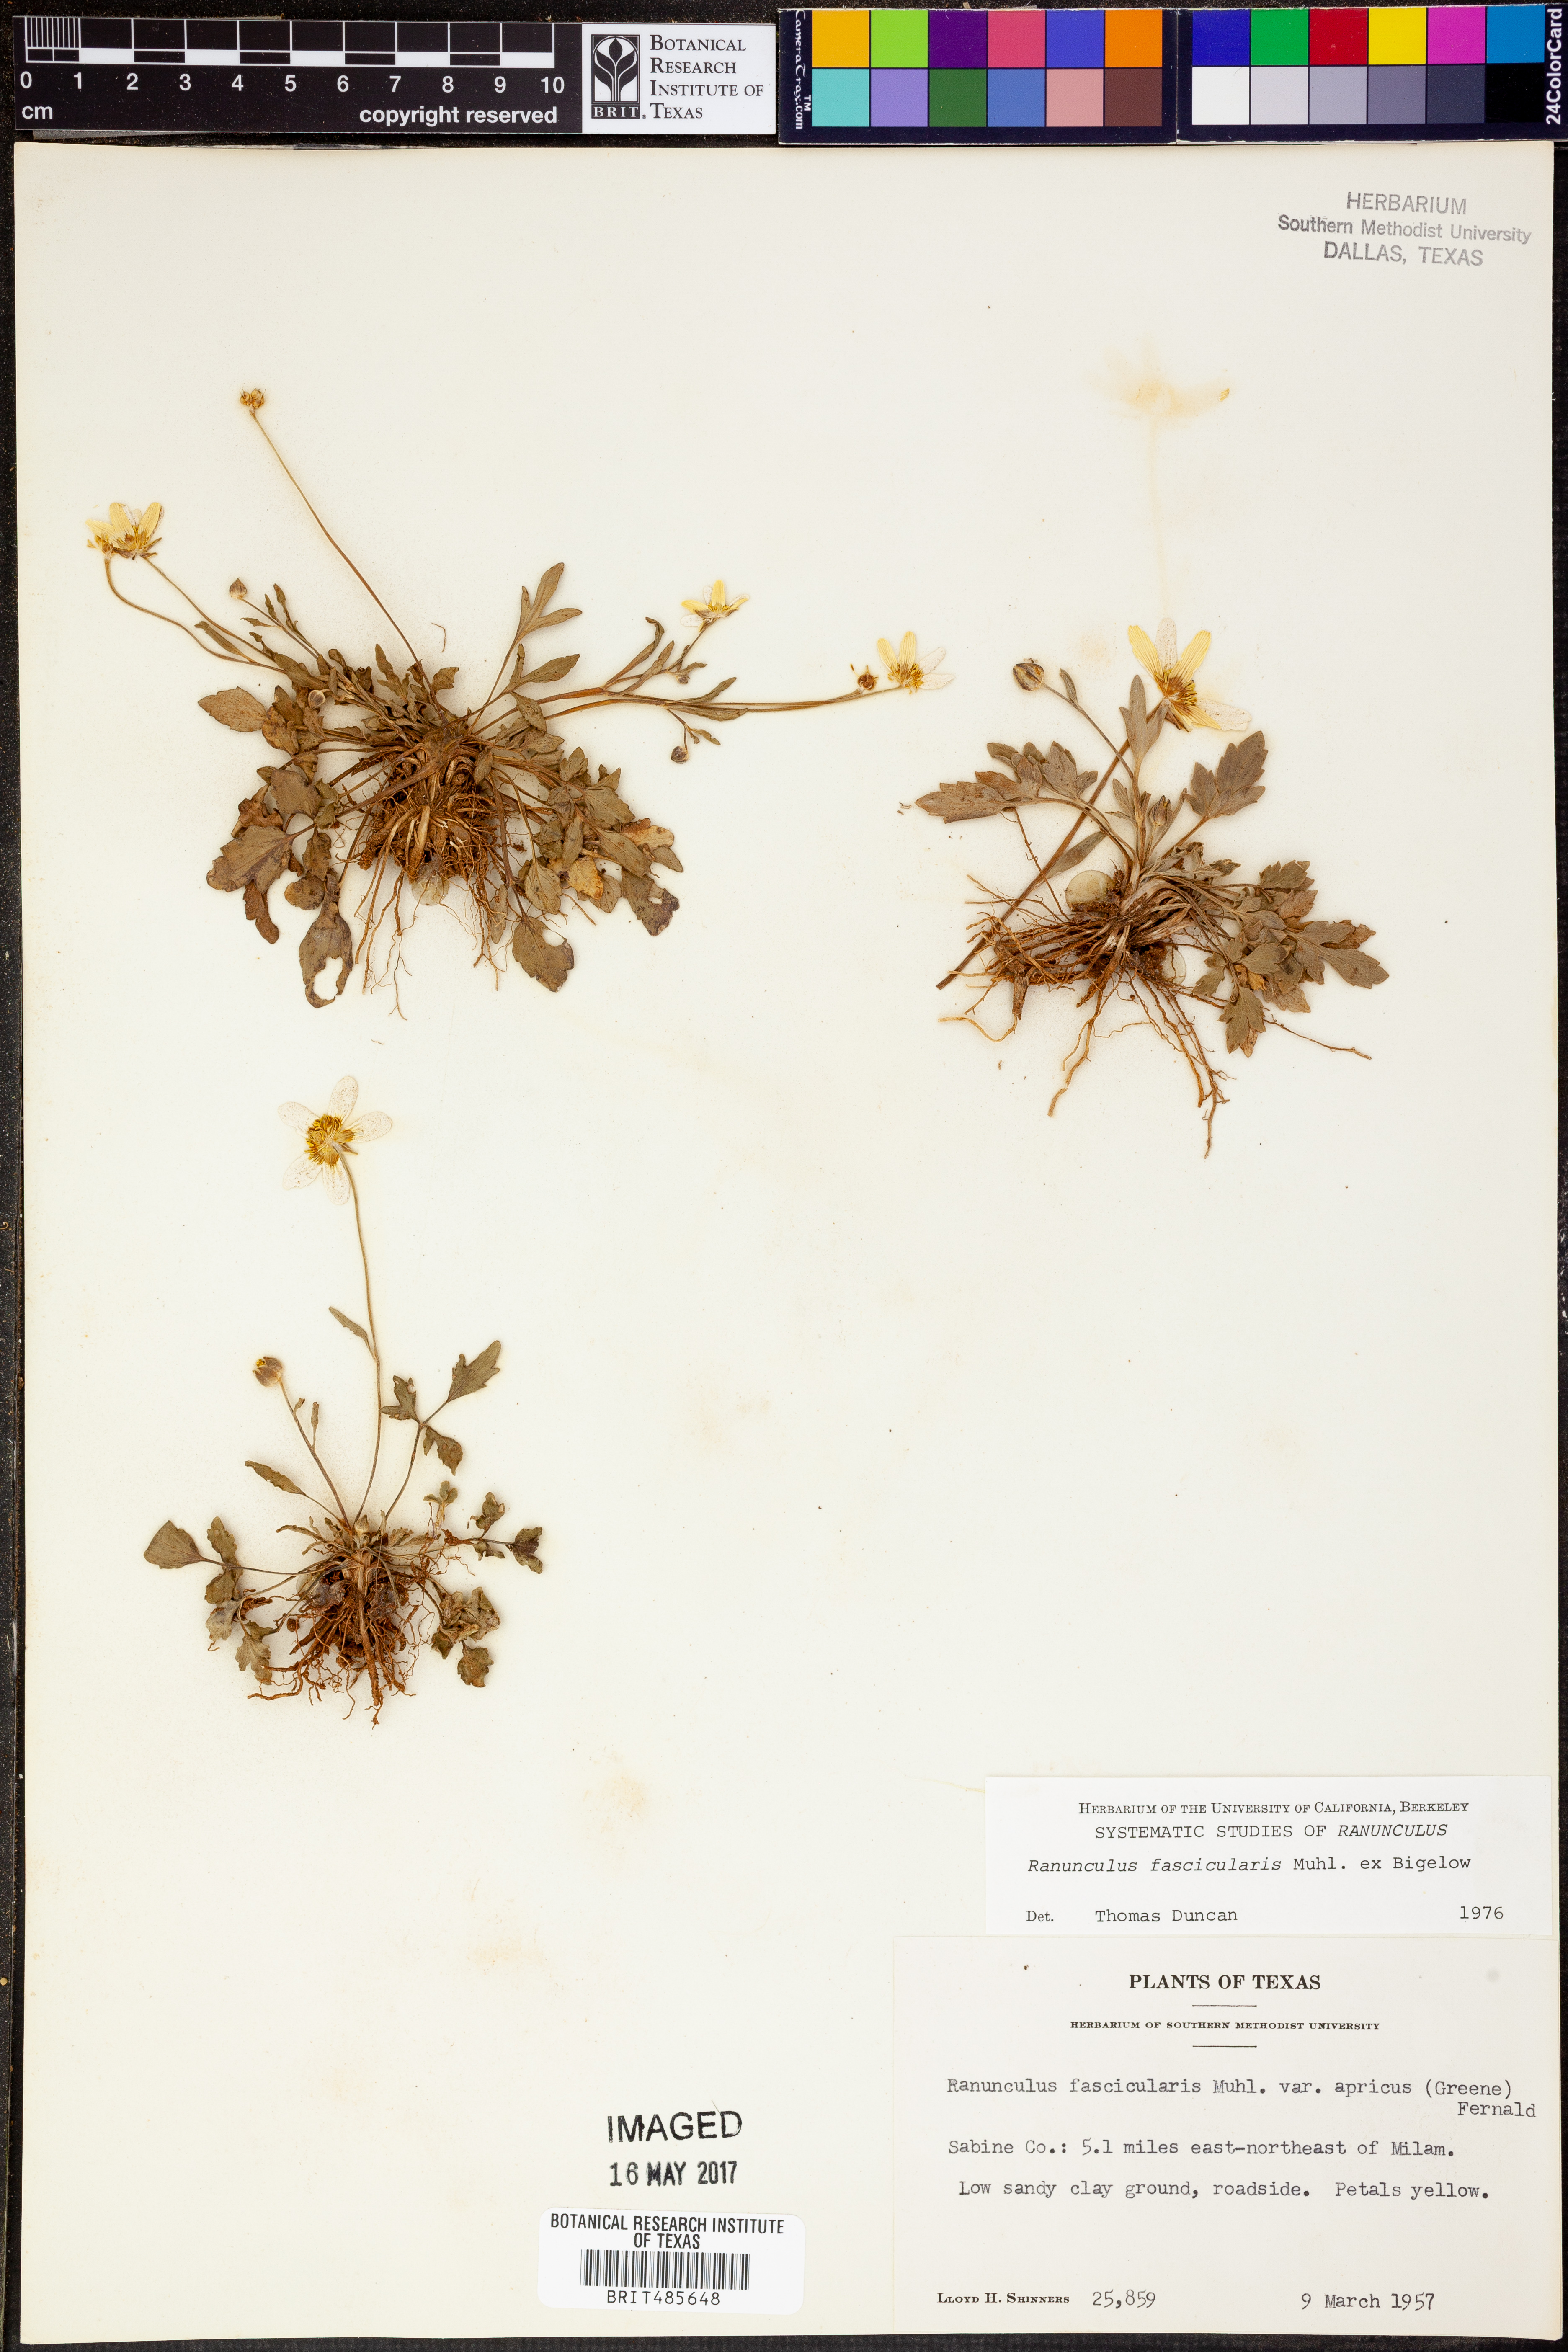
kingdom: Plantae
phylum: Tracheophyta
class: Magnoliopsida
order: Ranunculales
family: Ranunculaceae
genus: Ranunculus
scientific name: Ranunculus fascicularis
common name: Early buttercup
